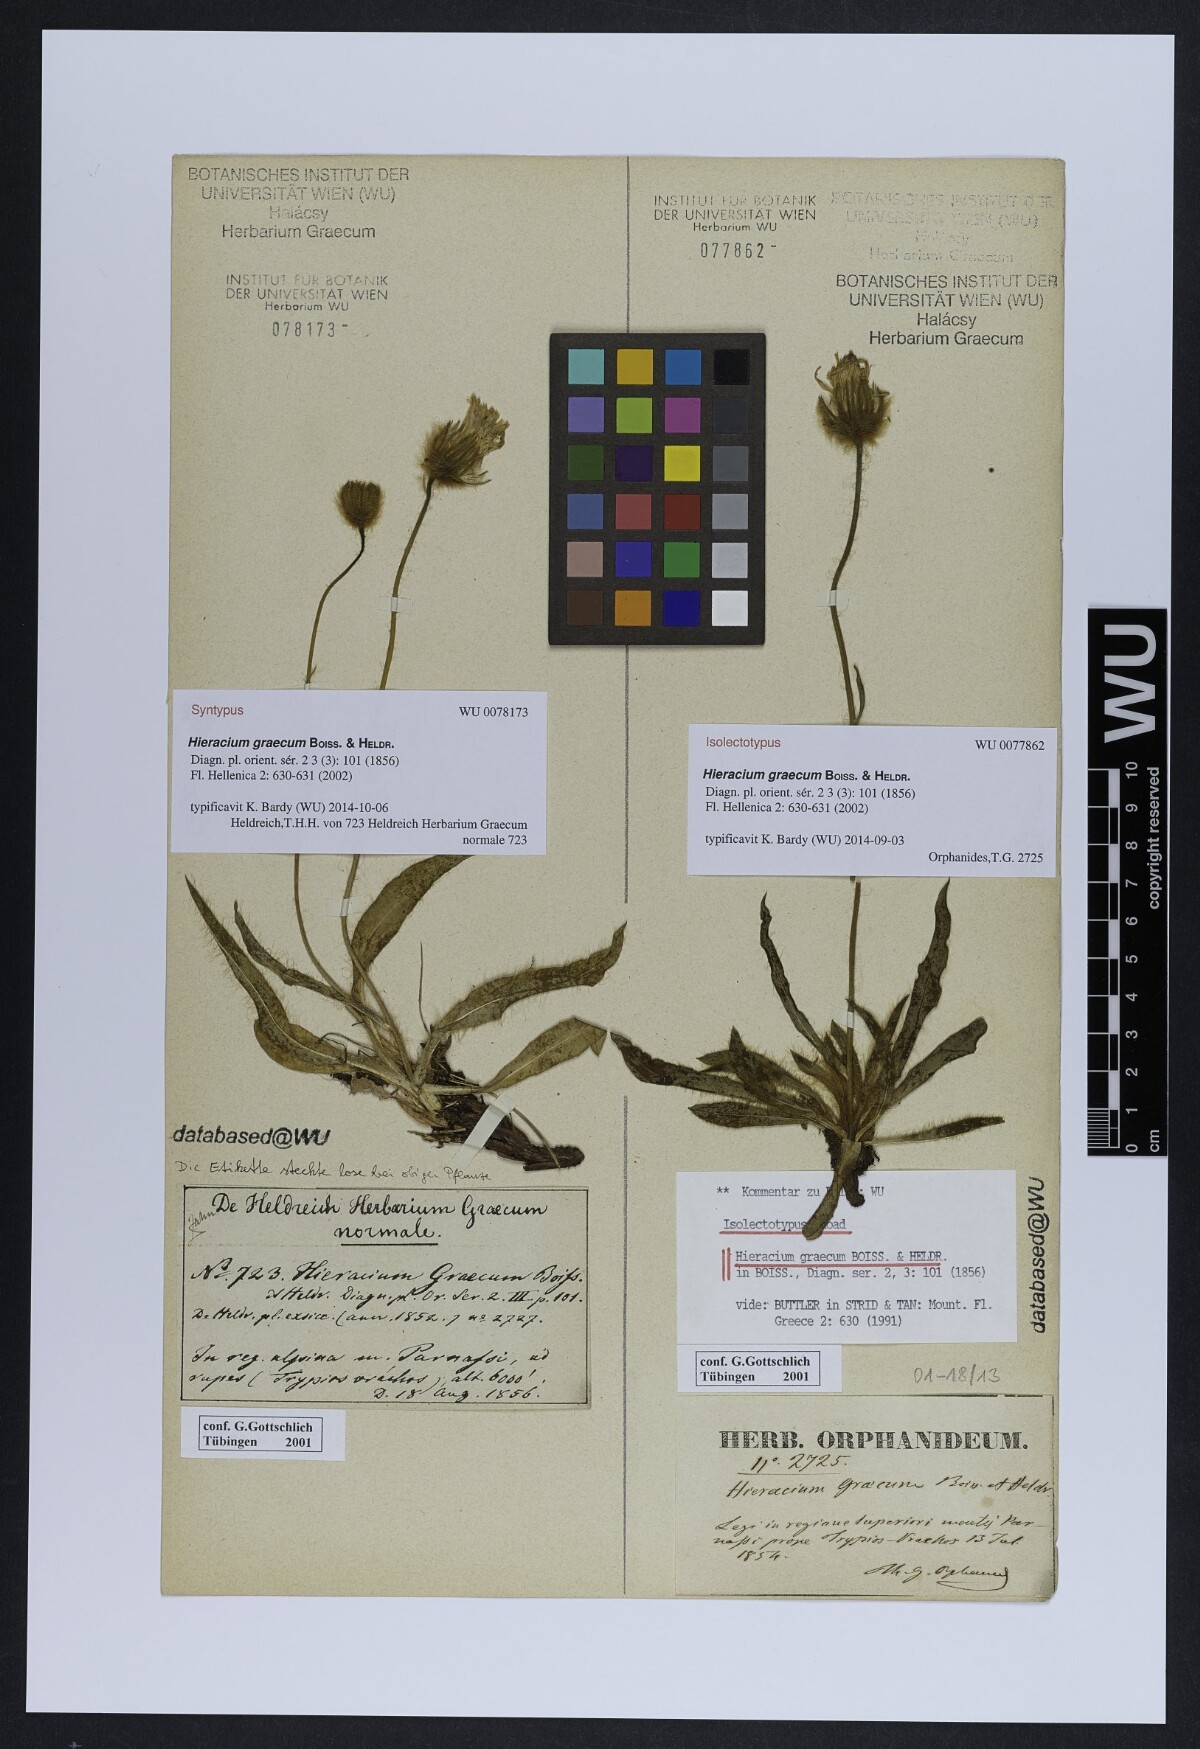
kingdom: Plantae
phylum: Tracheophyta
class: Magnoliopsida
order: Asterales
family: Asteraceae
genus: Hieracium
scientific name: Hieracium graecum
